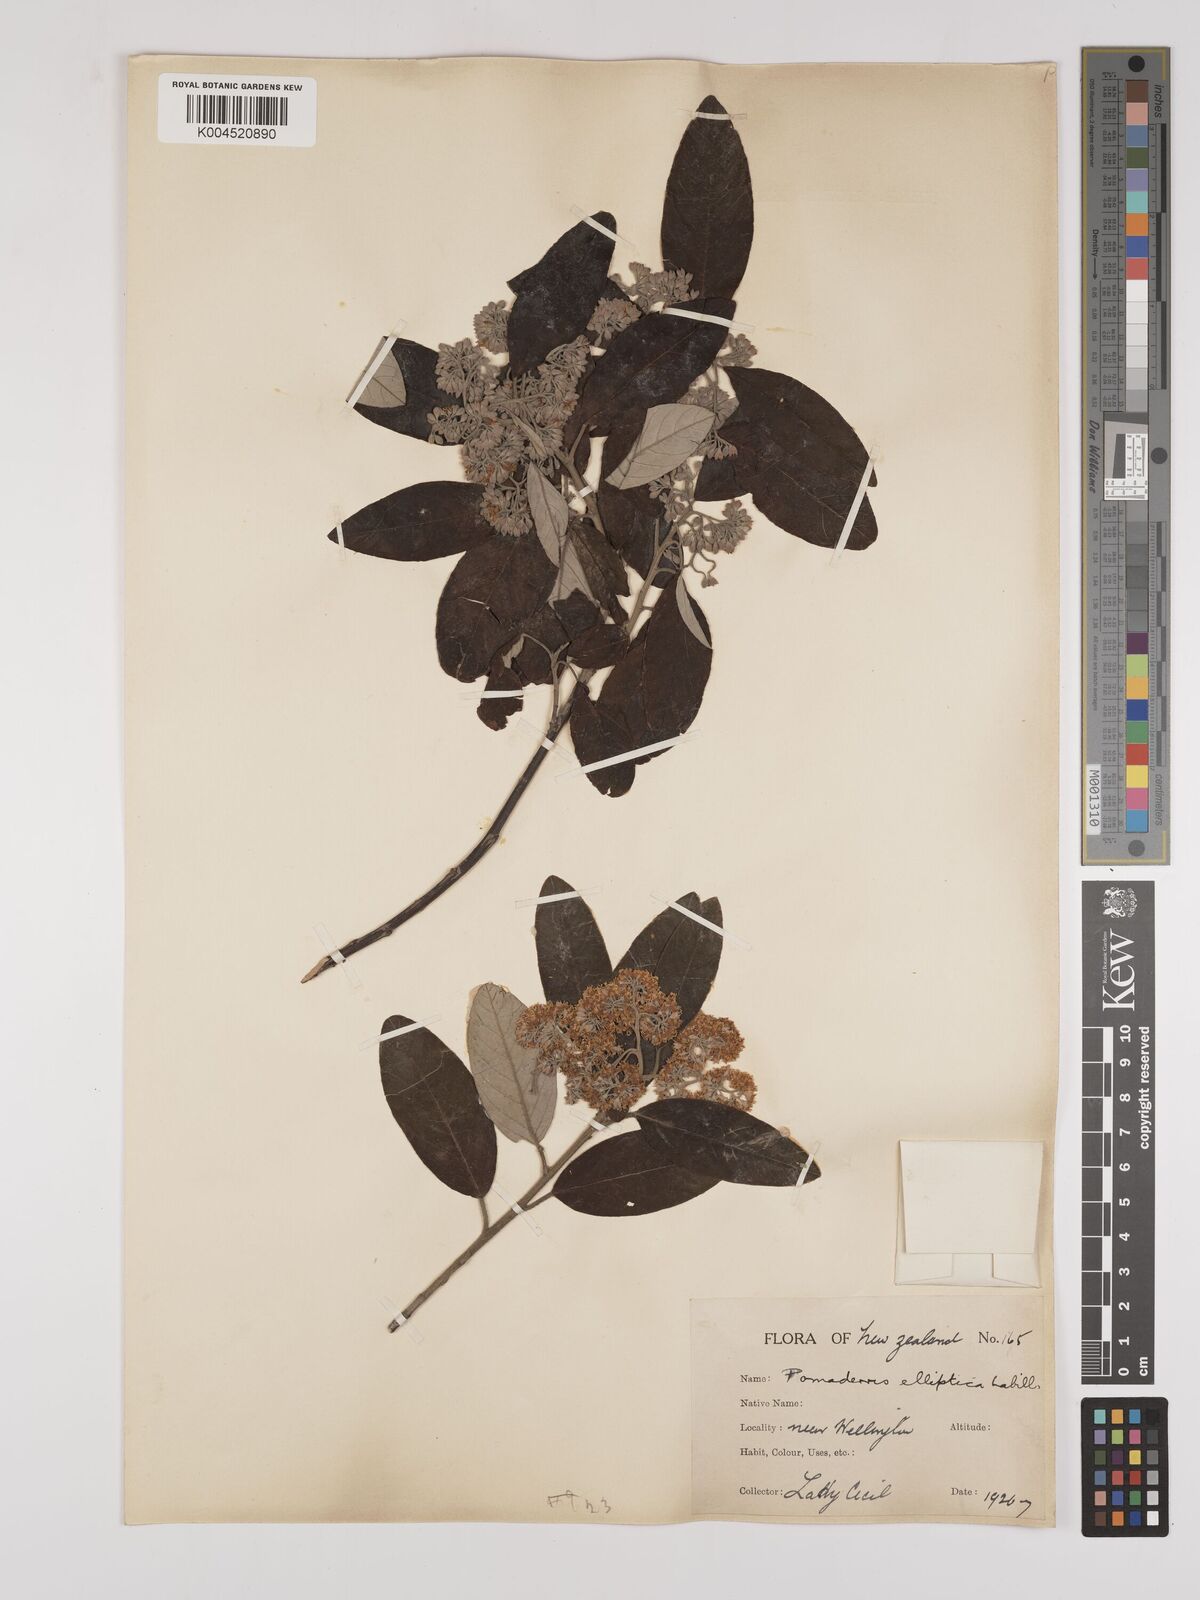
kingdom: Plantae
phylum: Tracheophyta
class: Magnoliopsida
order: Rosales
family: Rhamnaceae
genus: Pomaderris
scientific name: Pomaderris kumeraho
